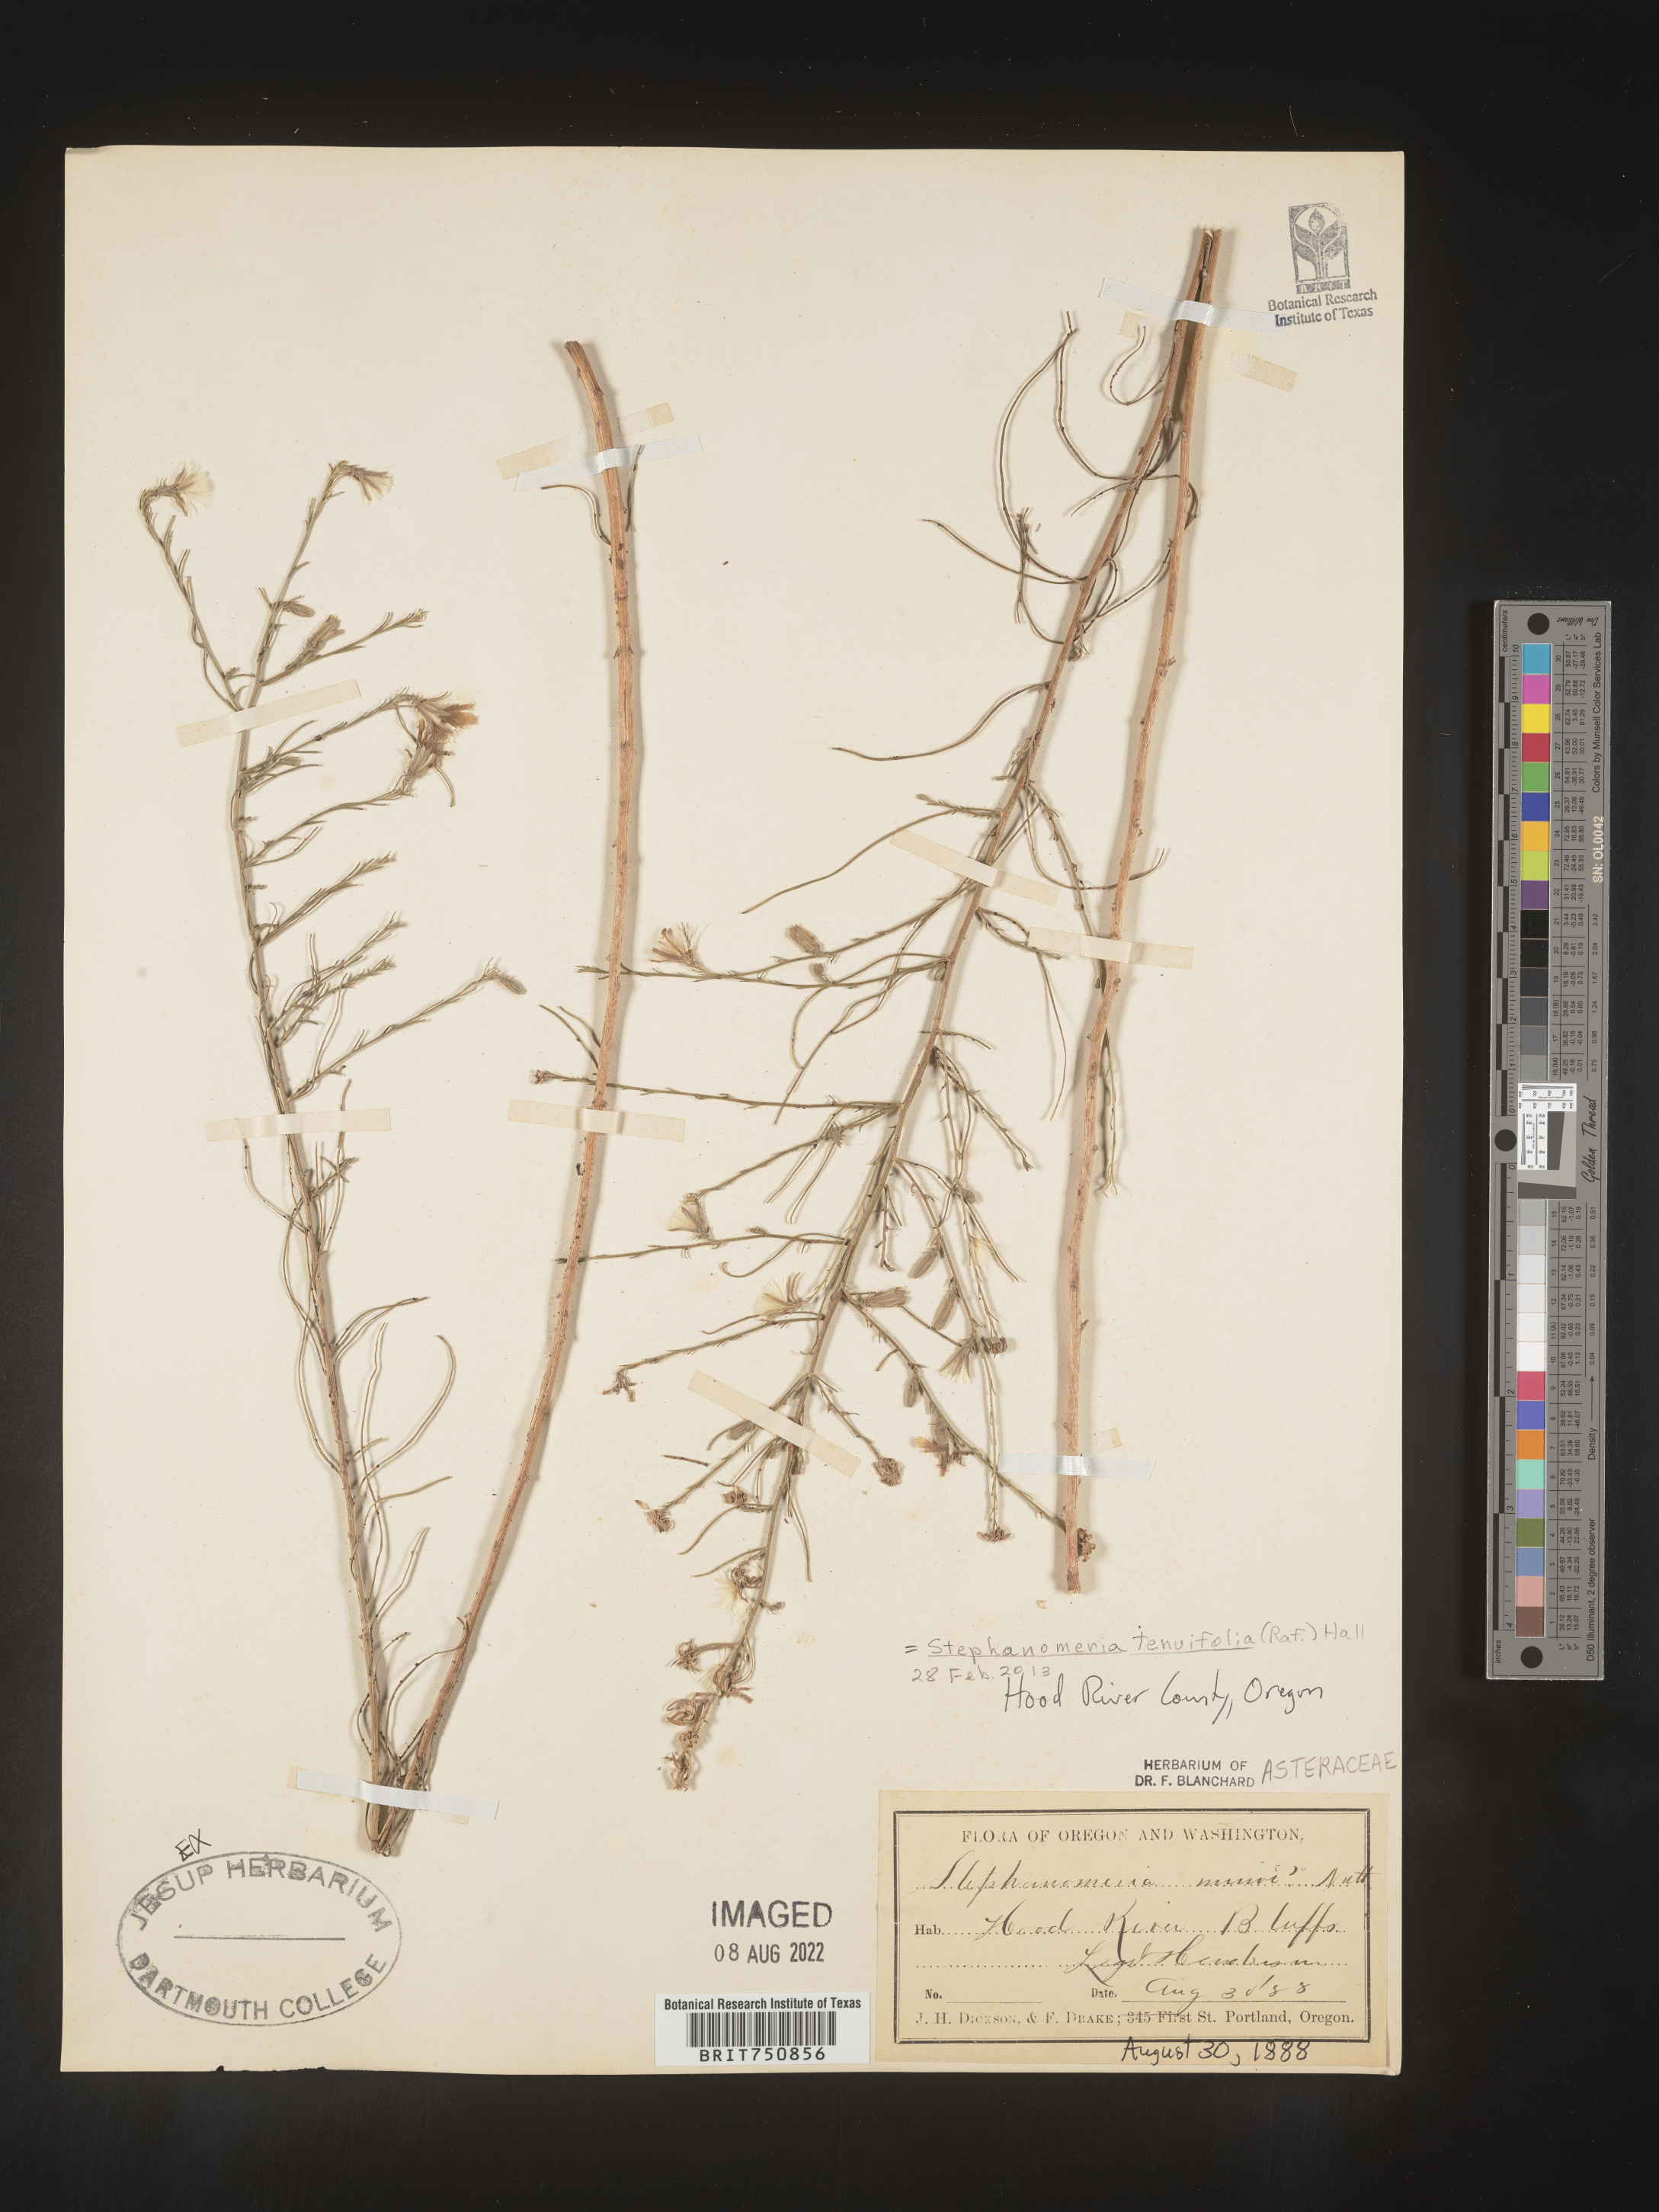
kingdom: Plantae
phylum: Tracheophyta
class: Magnoliopsida
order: Asterales
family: Asteraceae
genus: Stephanomeria
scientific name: Stephanomeria tenuifolia
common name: Slender wirelettuce
